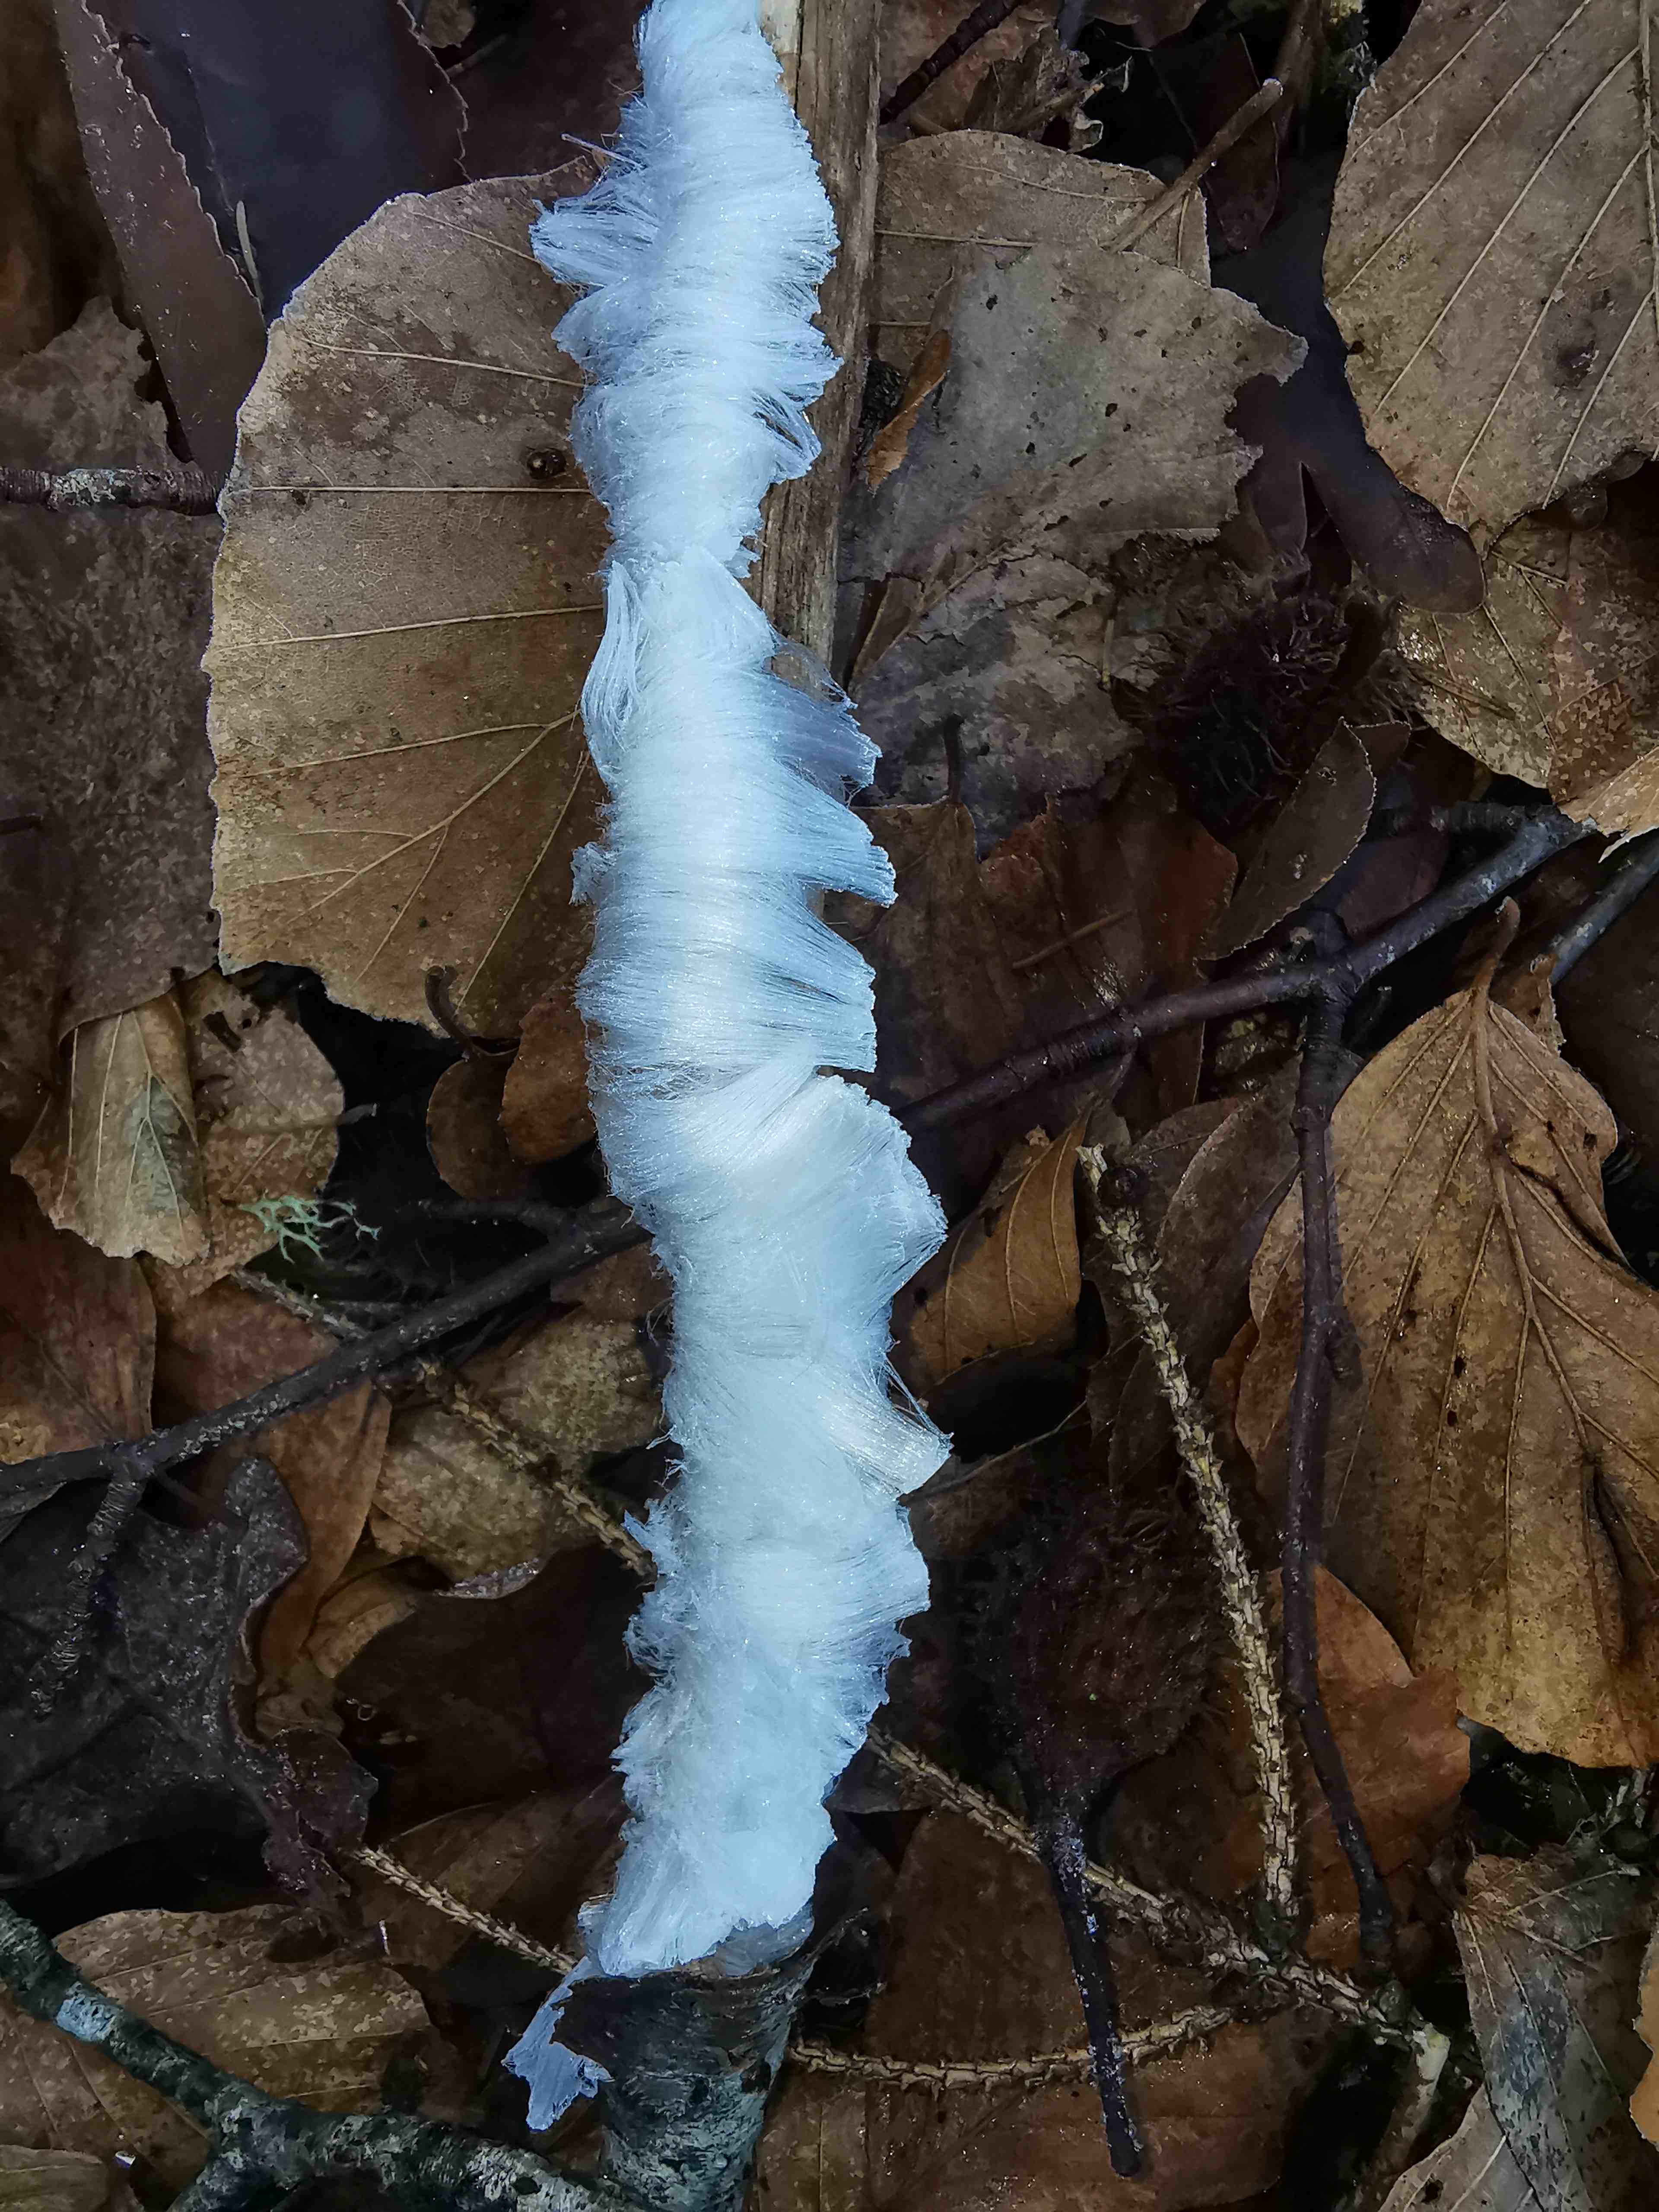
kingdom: Fungi
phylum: Basidiomycota
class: Tremellomycetes
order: Tremellales
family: Exidiaceae
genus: Exidiopsis
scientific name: Exidiopsis effusa
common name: smuk bævrehinde
